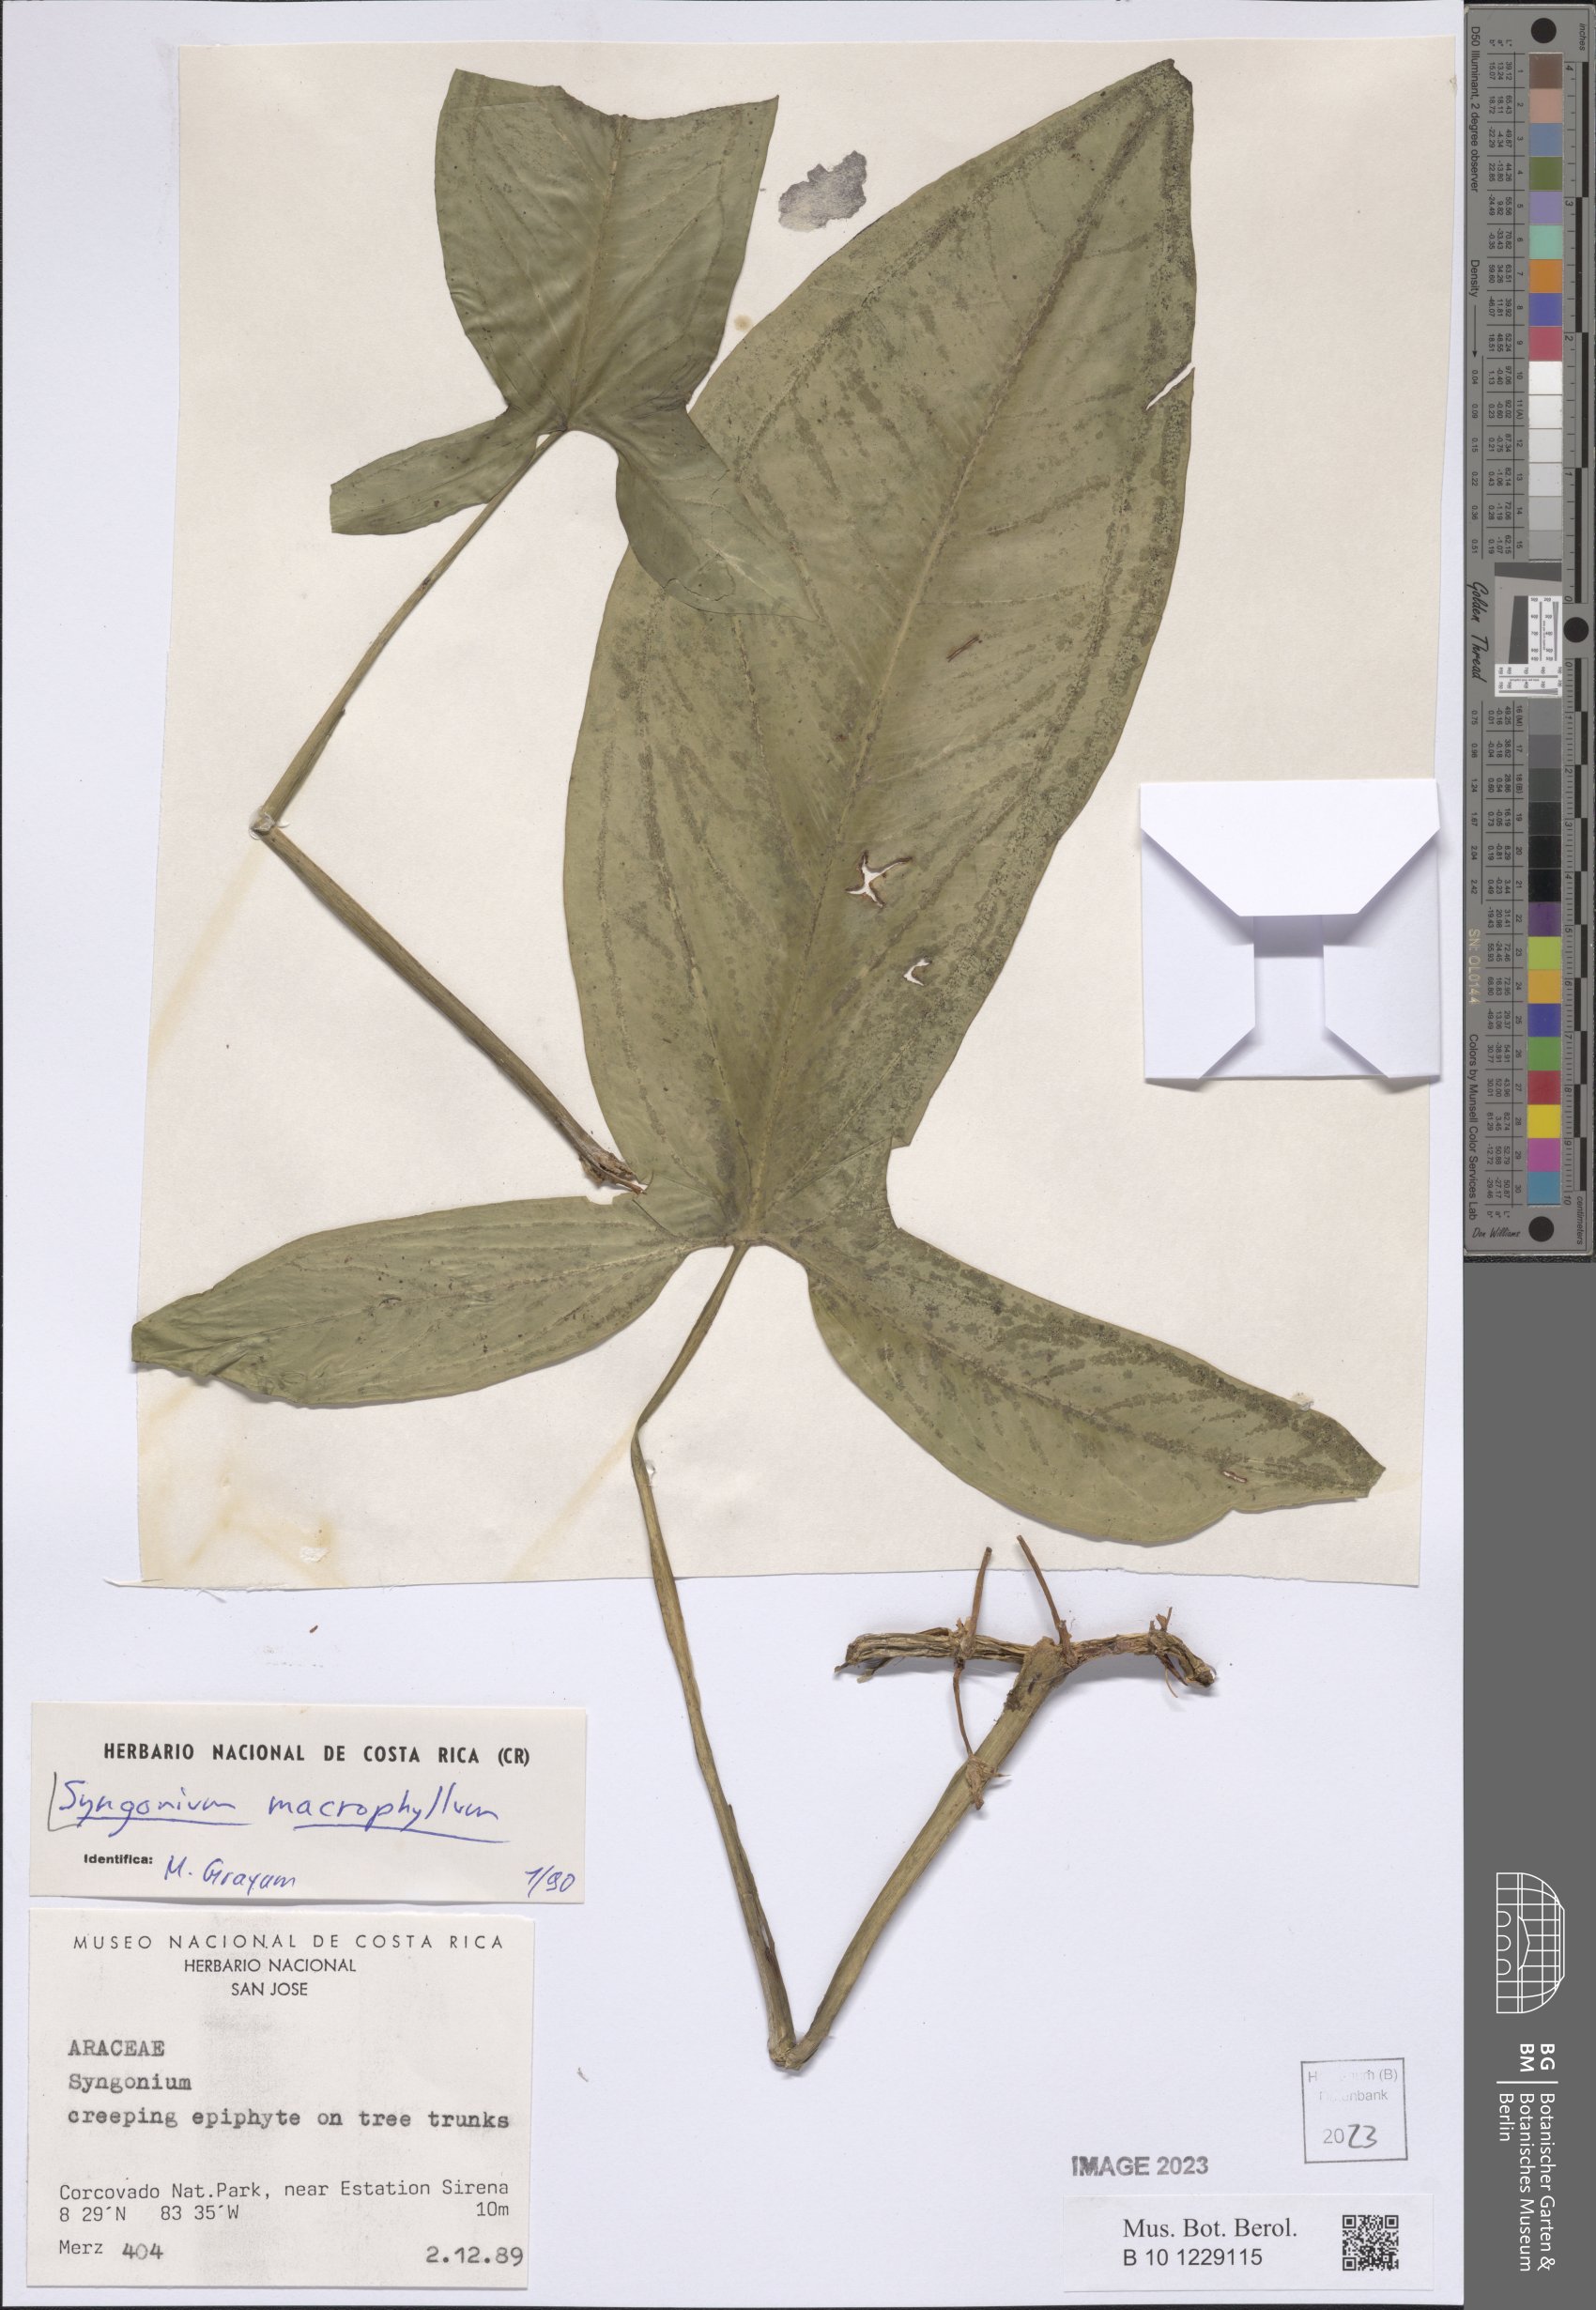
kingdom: Plantae
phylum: Tracheophyta
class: Liliopsida
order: Alismatales
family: Araceae
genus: Syngonium
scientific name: Syngonium macrophyllum
